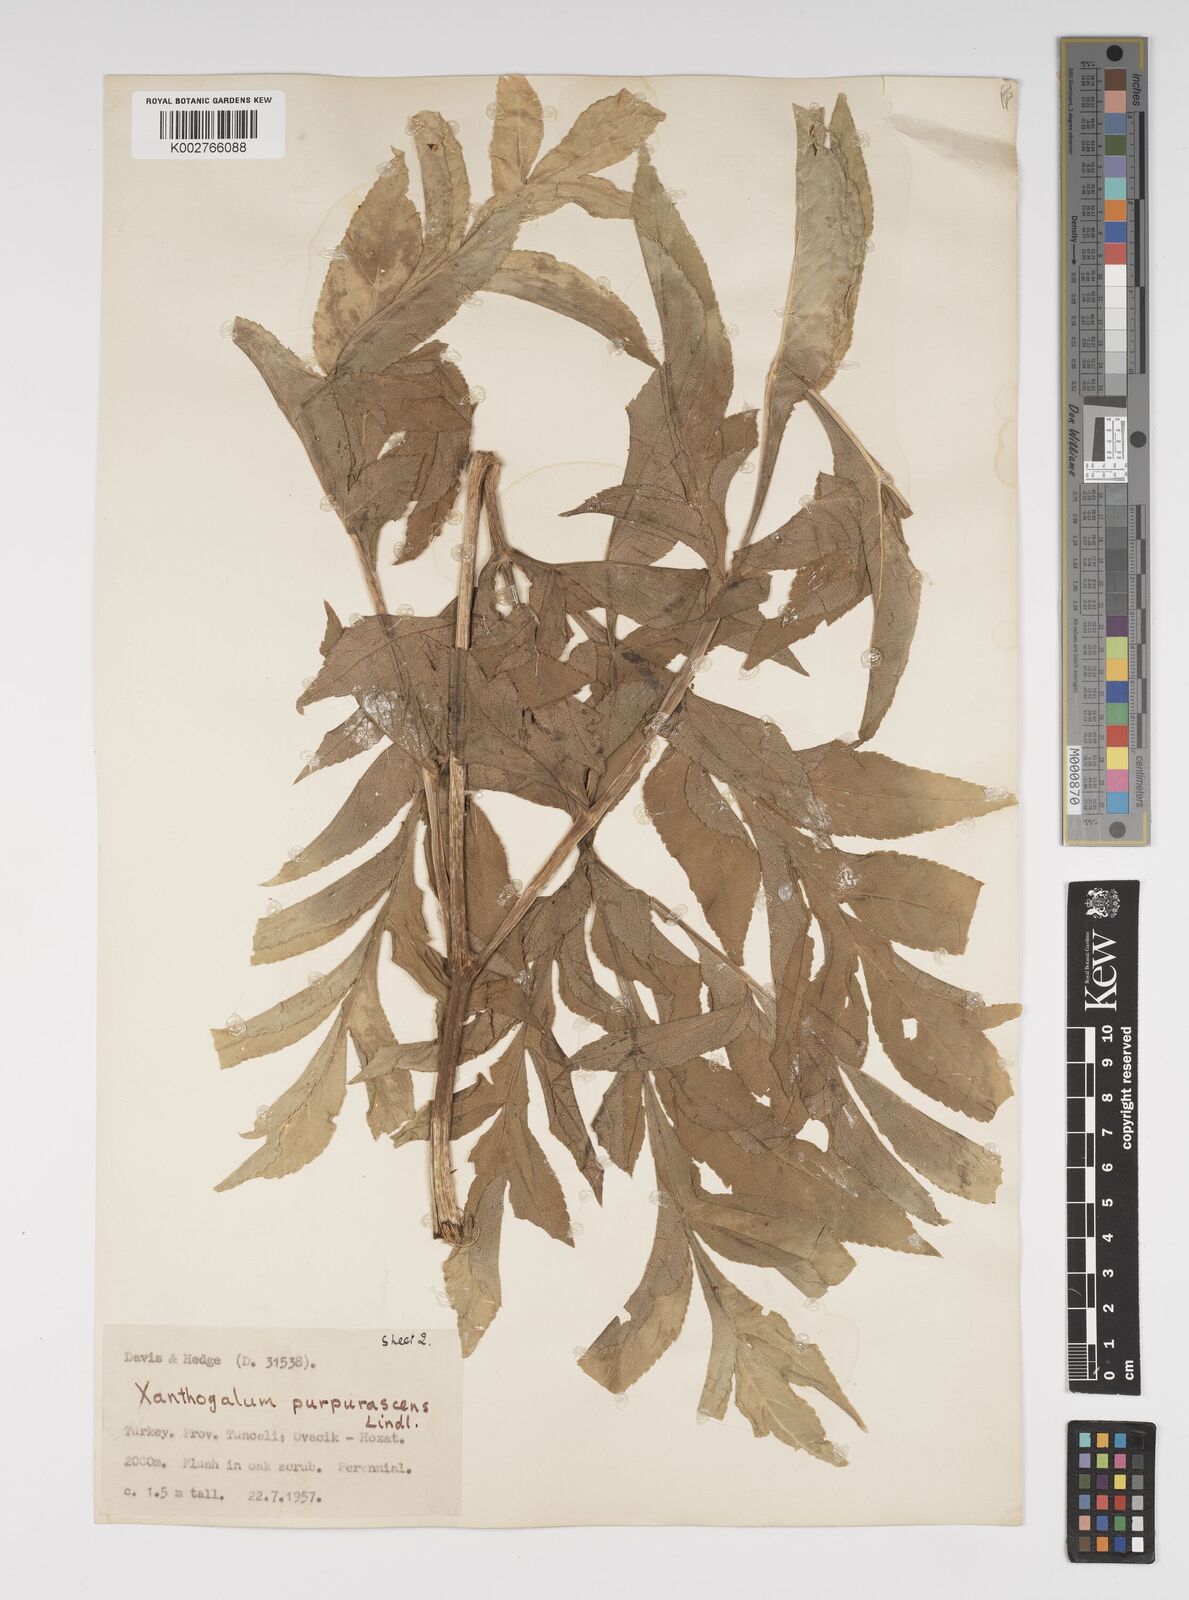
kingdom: Plantae
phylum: Tracheophyta
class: Magnoliopsida
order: Apiales
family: Apiaceae
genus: Xanthogalum
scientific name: Xanthogalum purpurascens
